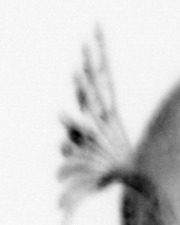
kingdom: Animalia
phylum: Annelida
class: Polychaeta
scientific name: Polychaeta
